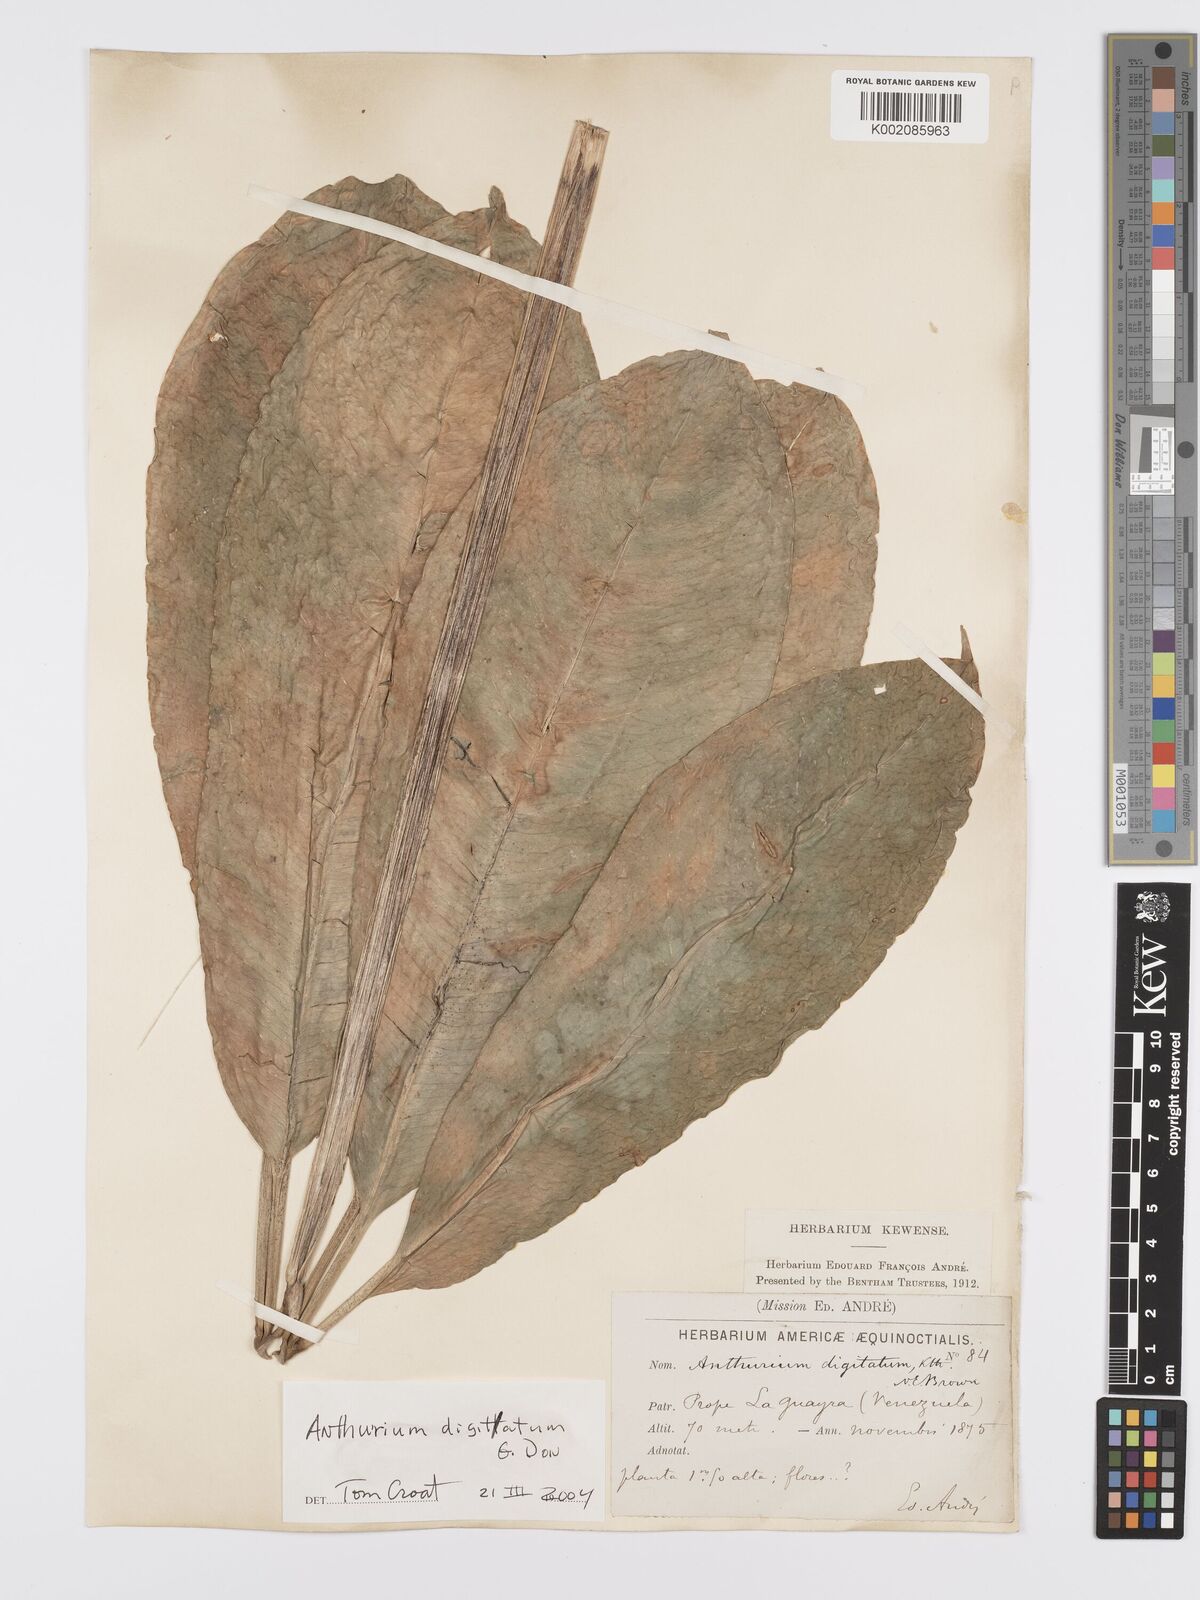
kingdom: Plantae
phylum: Tracheophyta
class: Liliopsida
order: Alismatales
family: Araceae
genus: Anthurium
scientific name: Anthurium digitatum
